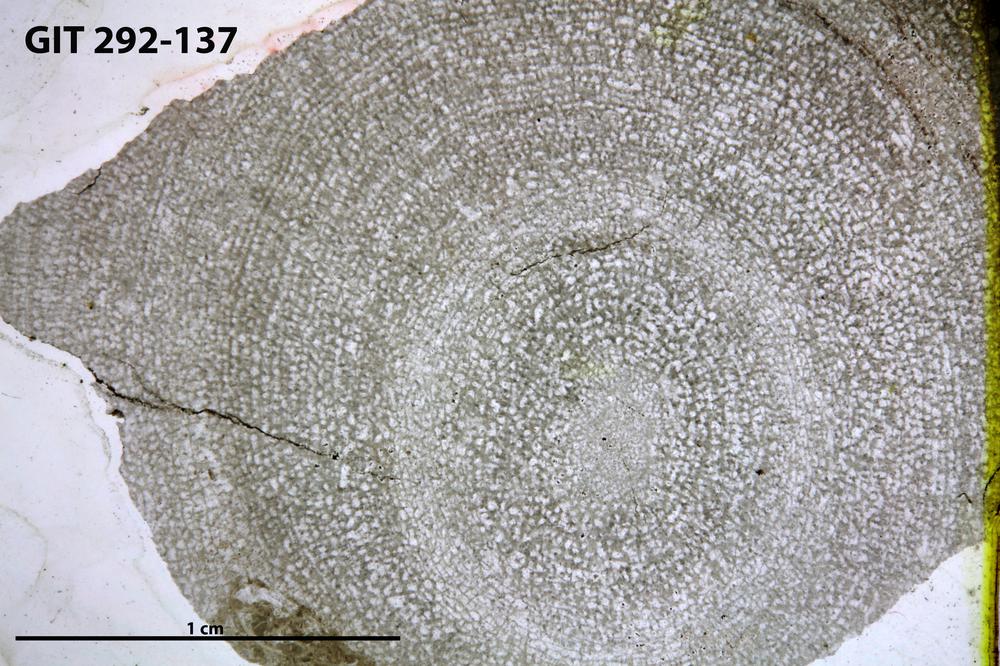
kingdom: Animalia
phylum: Porifera
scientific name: Porifera
